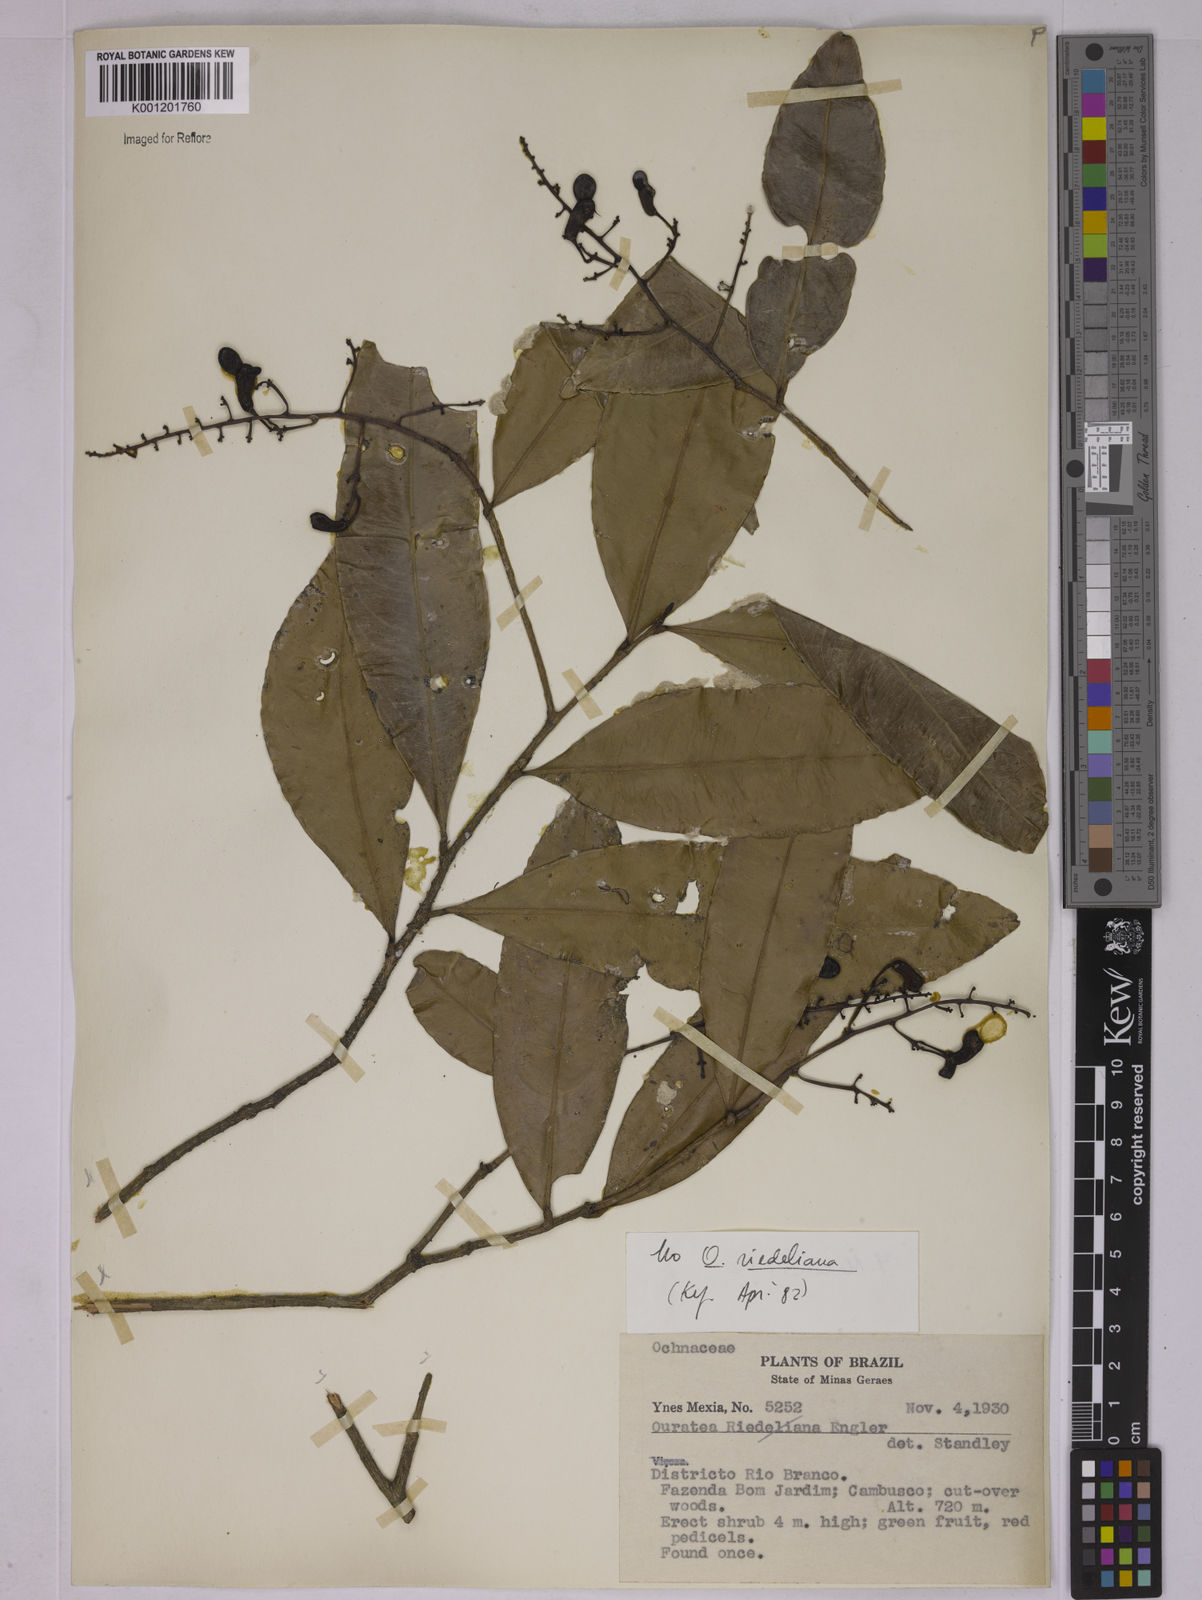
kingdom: Plantae
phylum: Tracheophyta
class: Magnoliopsida
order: Malpighiales
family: Ochnaceae
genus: Ouratea
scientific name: Ouratea riedeliana
